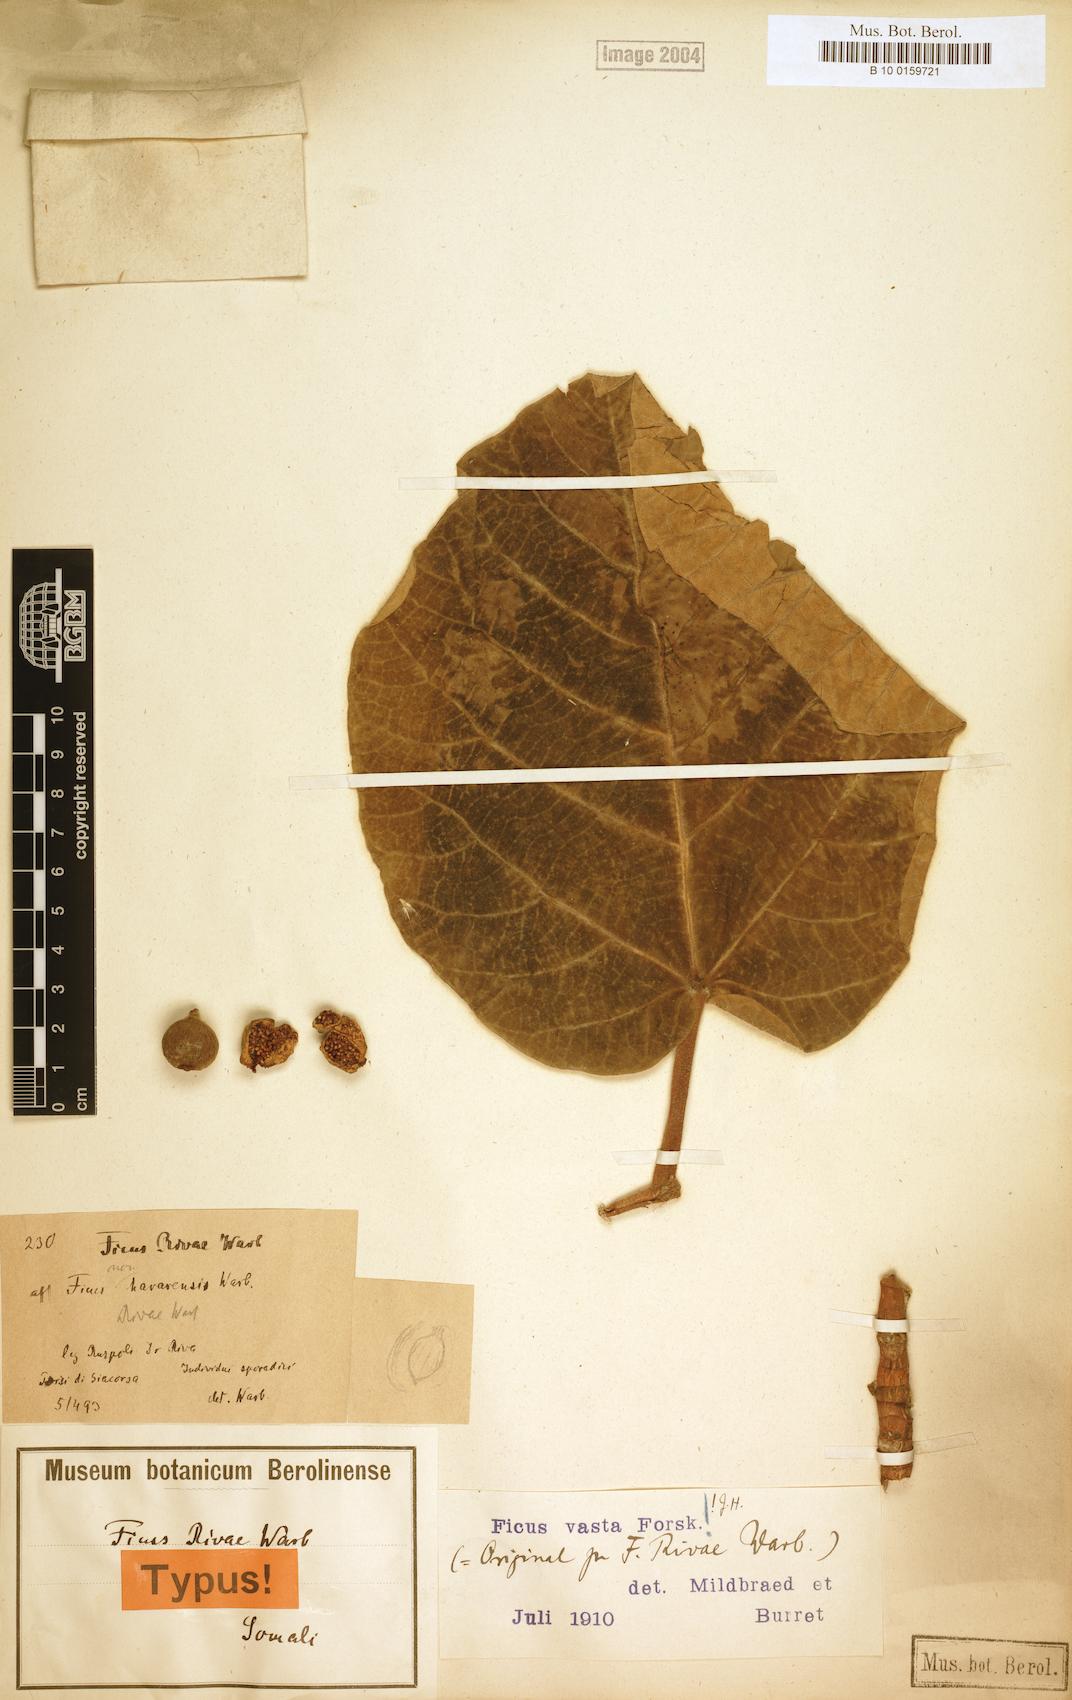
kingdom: Plantae
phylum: Tracheophyta
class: Magnoliopsida
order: Rosales
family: Moraceae
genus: Ficus
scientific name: Ficus vasta
